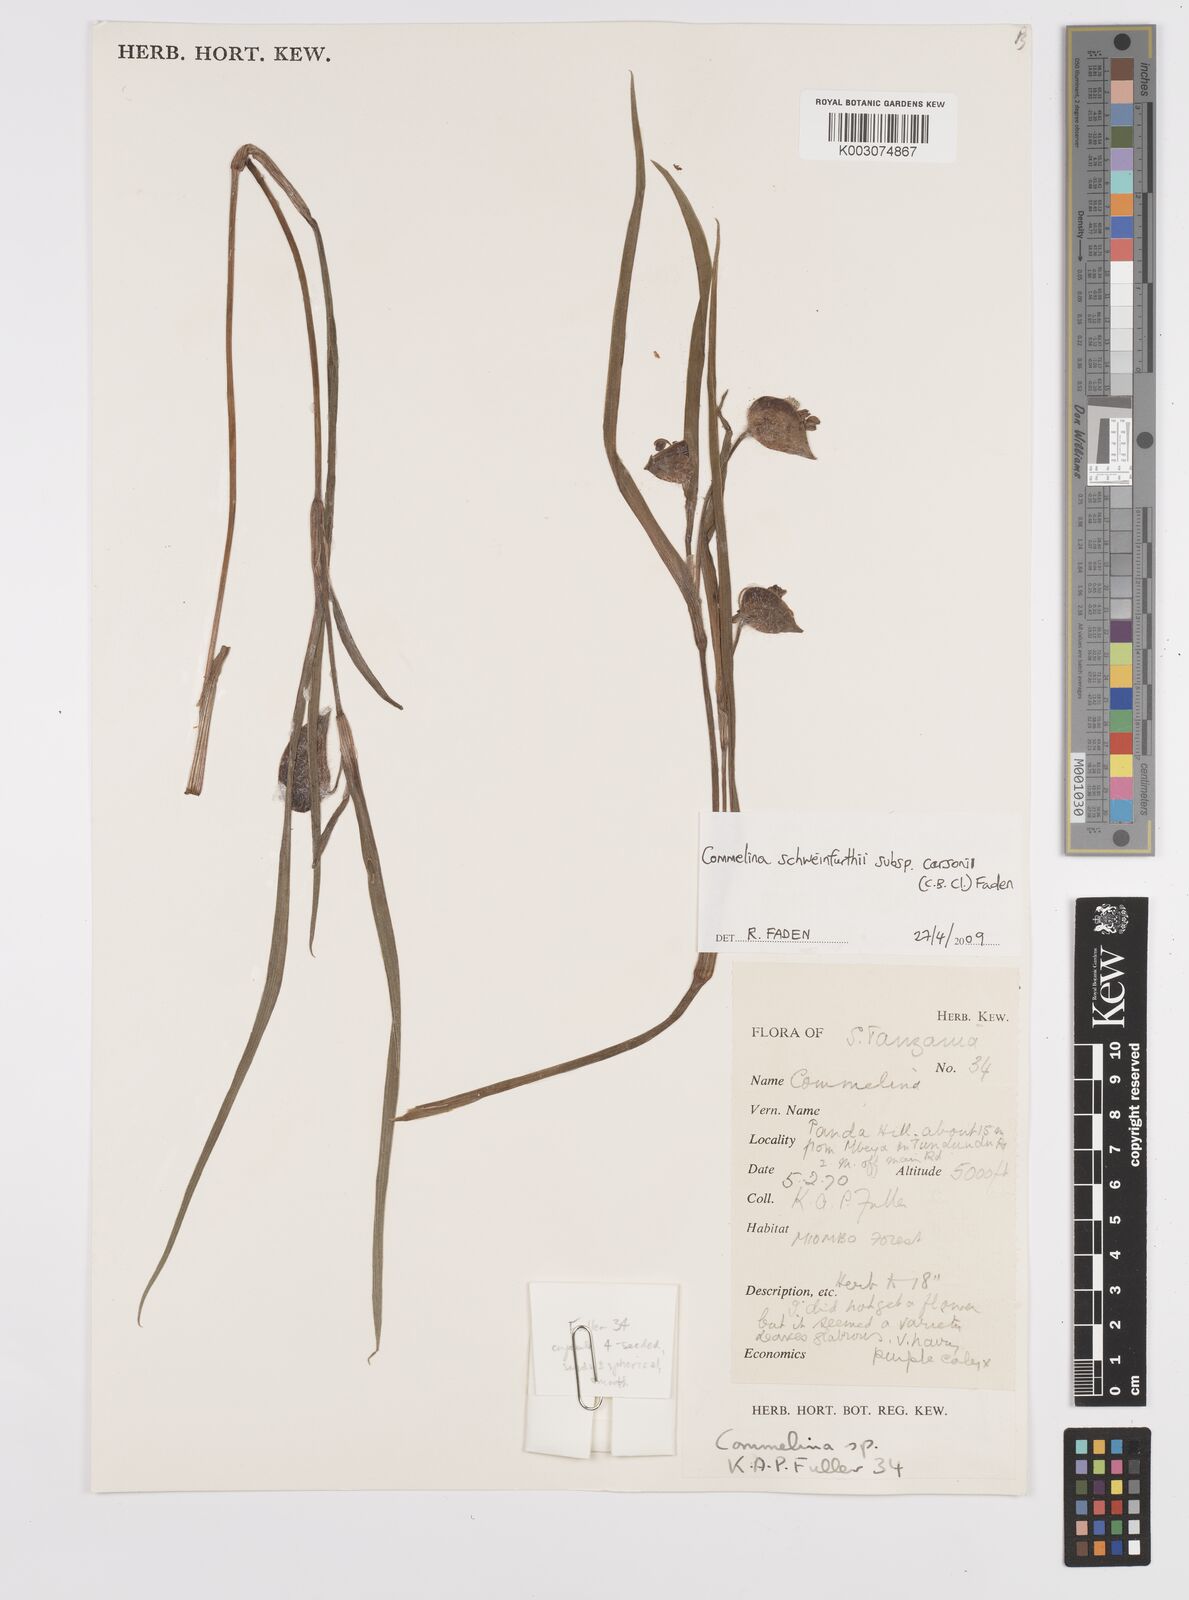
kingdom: Plantae
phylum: Tracheophyta
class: Liliopsida
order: Commelinales
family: Commelinaceae
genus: Commelina
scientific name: Commelina schweinfurthii
